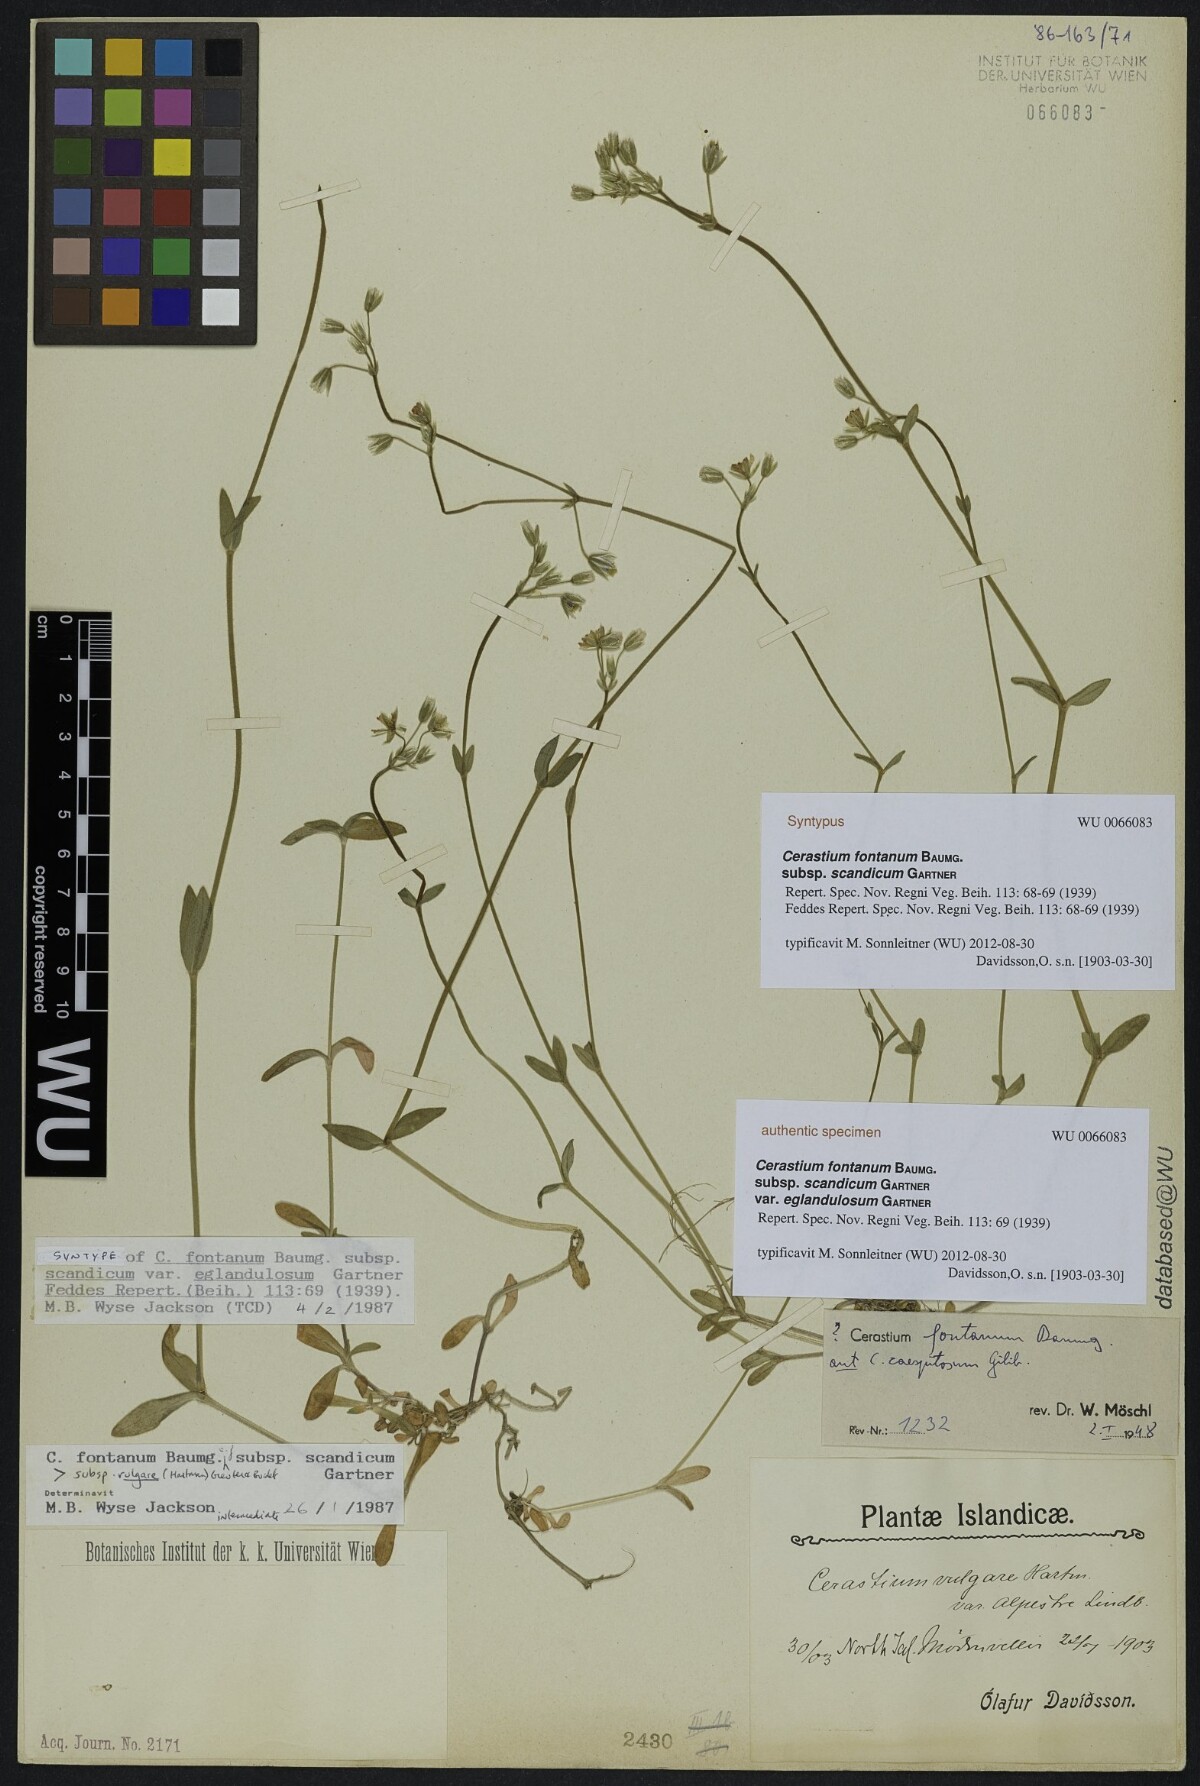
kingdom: Plantae
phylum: Tracheophyta
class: Magnoliopsida
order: Caryophyllales
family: Caryophyllaceae
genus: Cerastium
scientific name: Cerastium holosteoides
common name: Big chickweed
